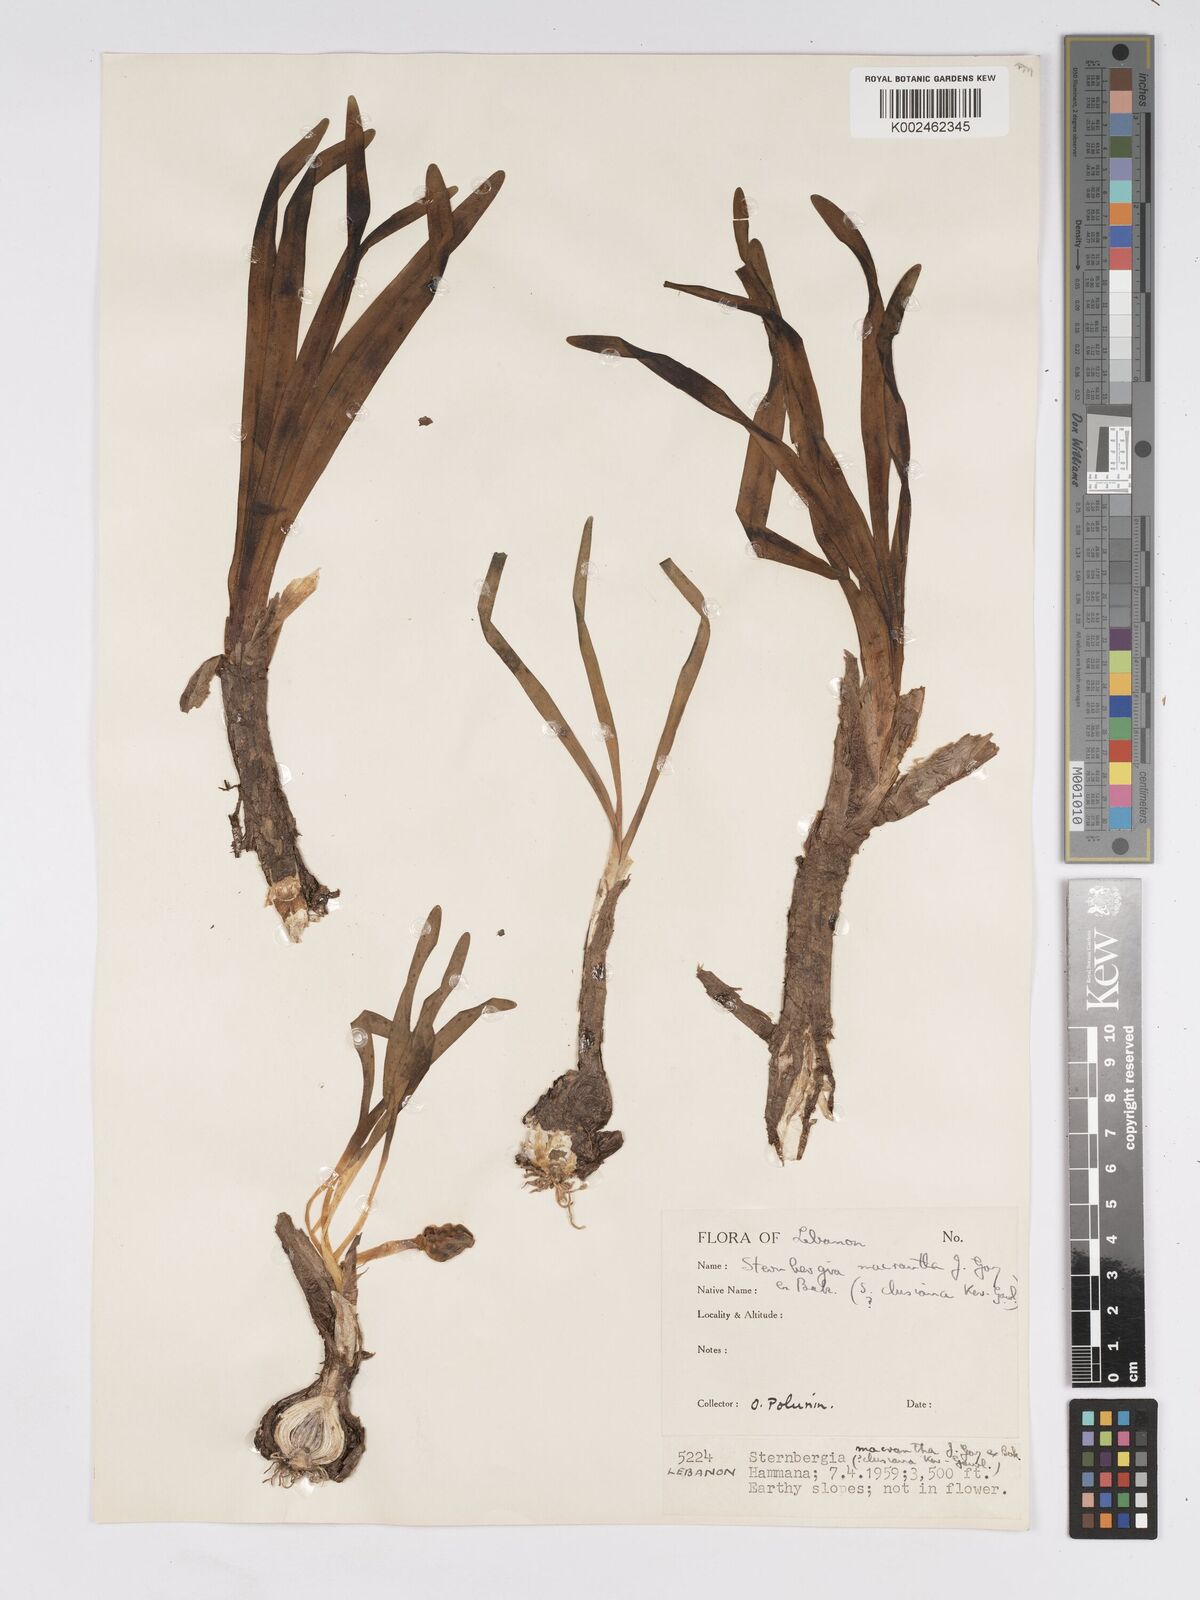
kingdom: Plantae
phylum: Tracheophyta
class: Liliopsida
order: Asparagales
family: Amaryllidaceae
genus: Sternbergia
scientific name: Sternbergia clusiana
